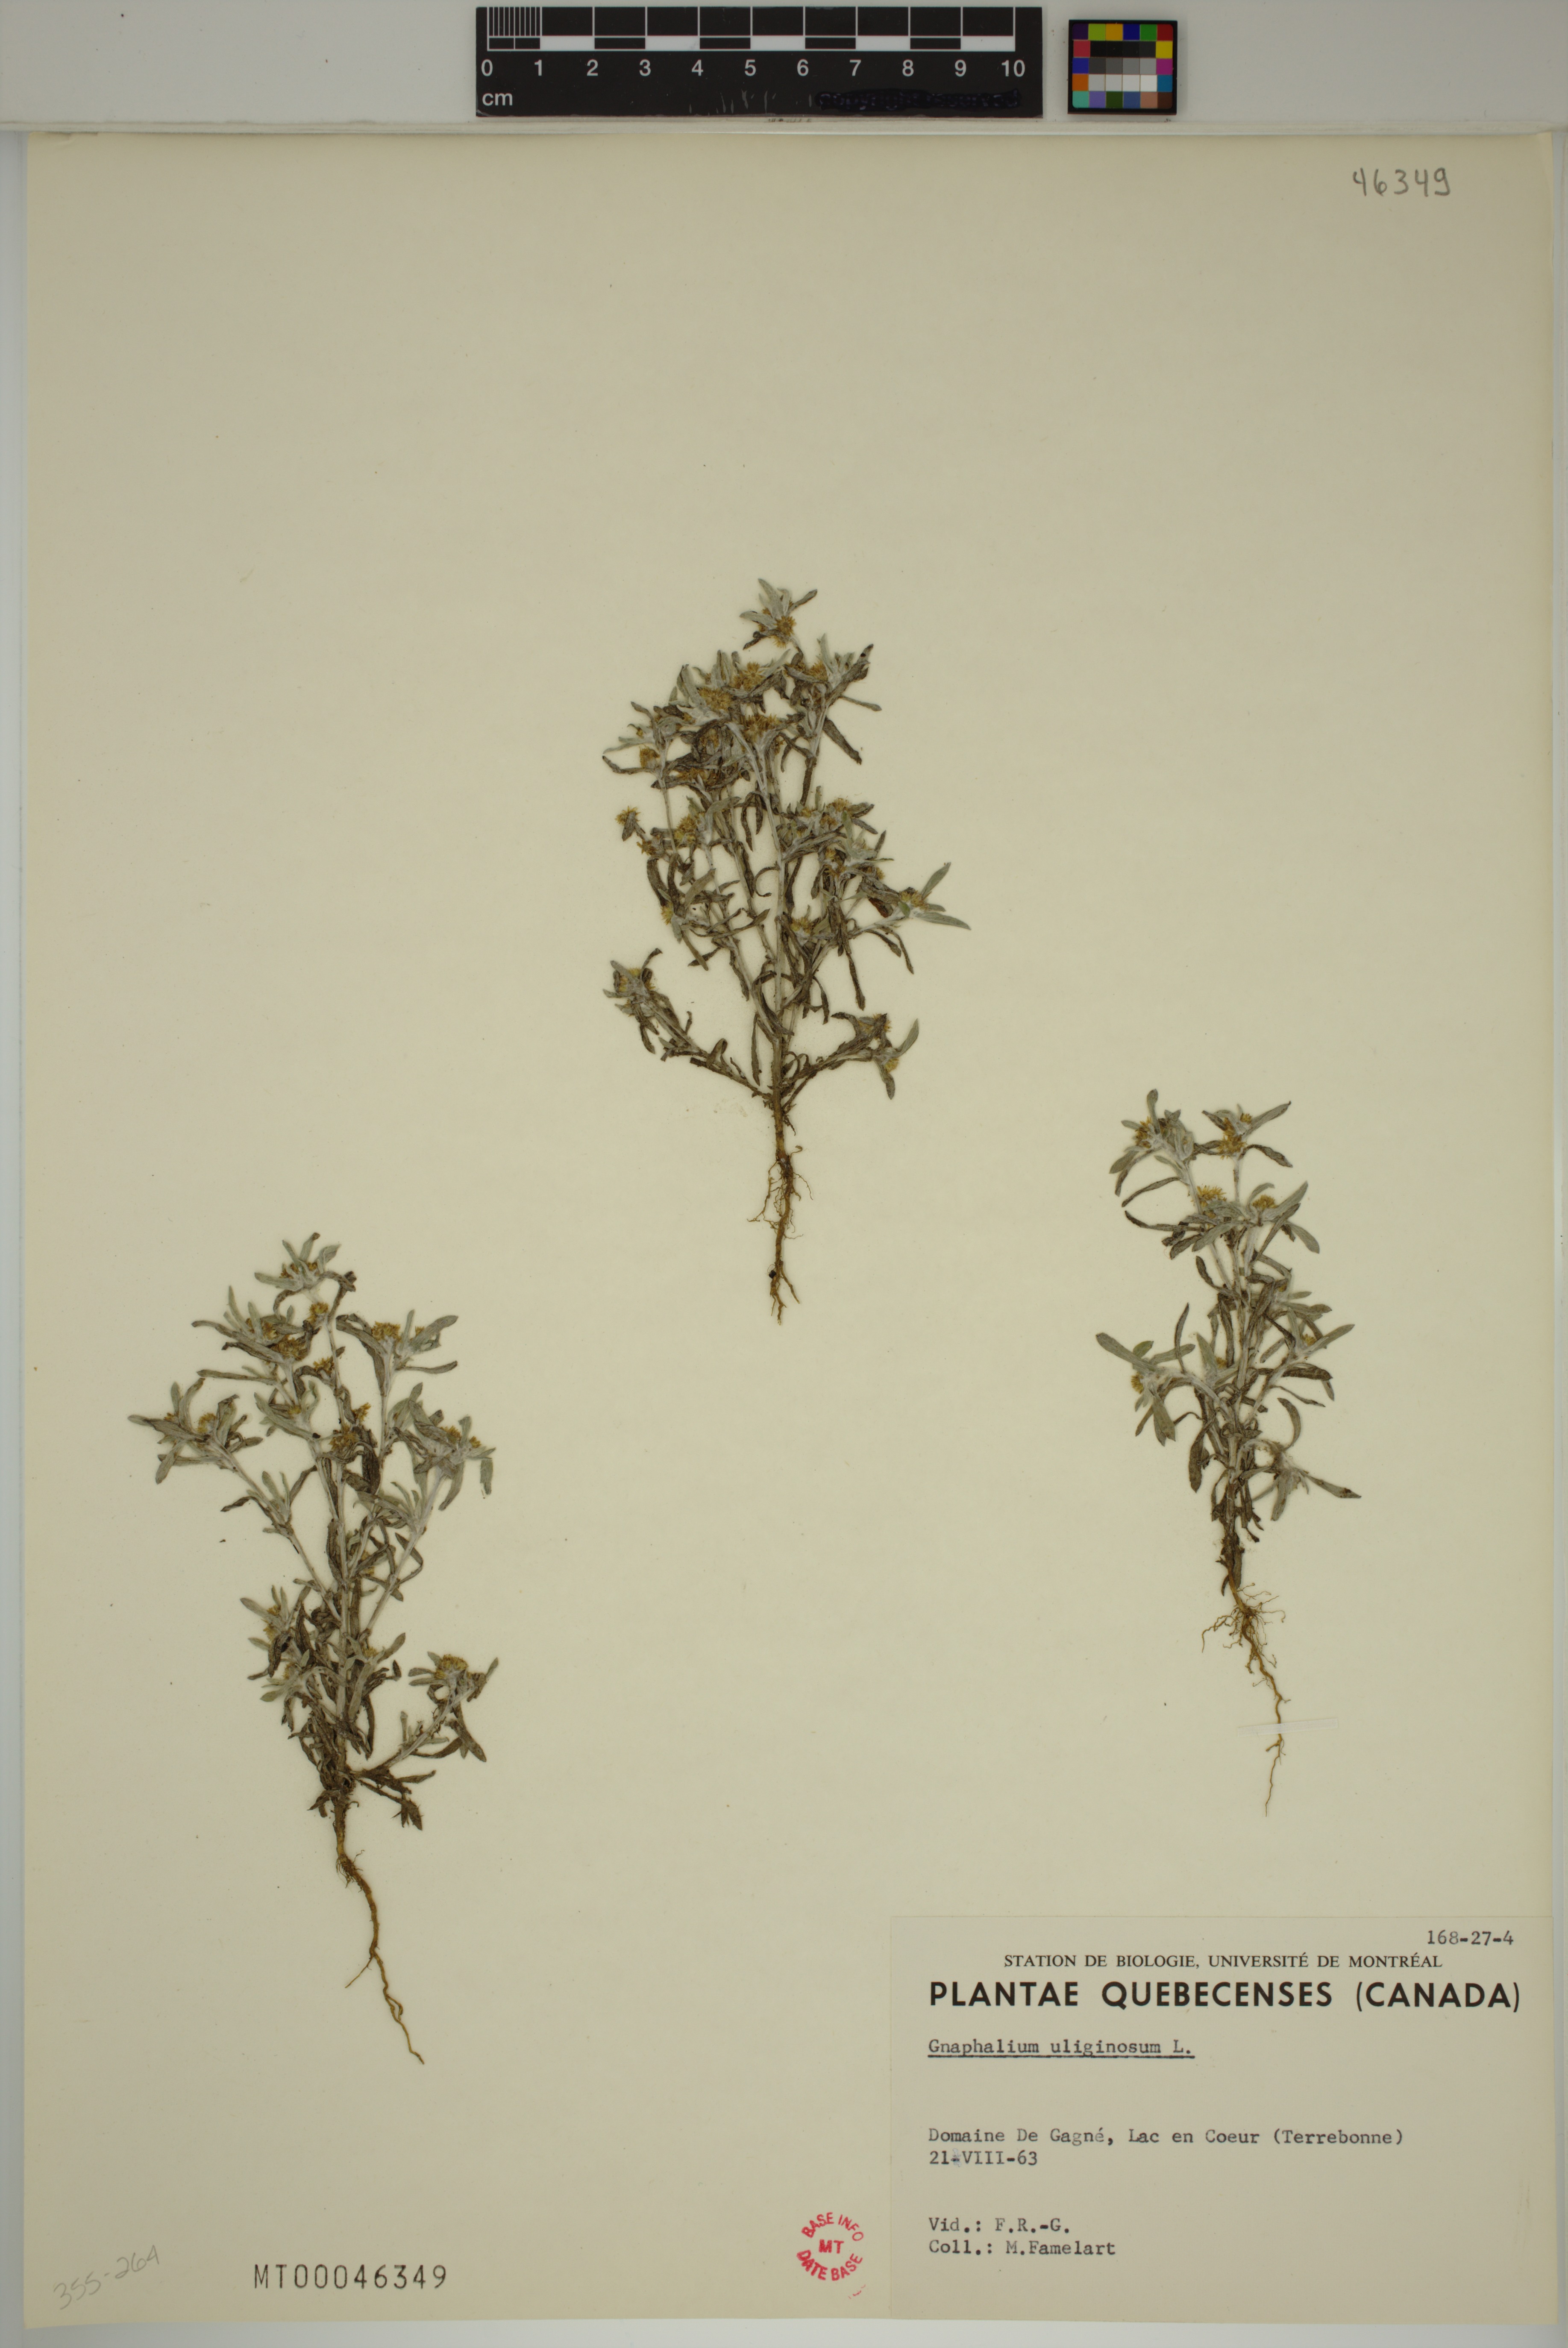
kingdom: Plantae
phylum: Tracheophyta
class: Magnoliopsida
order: Asterales
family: Asteraceae
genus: Gnaphalium
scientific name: Gnaphalium uliginosum
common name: Marsh cudweed
